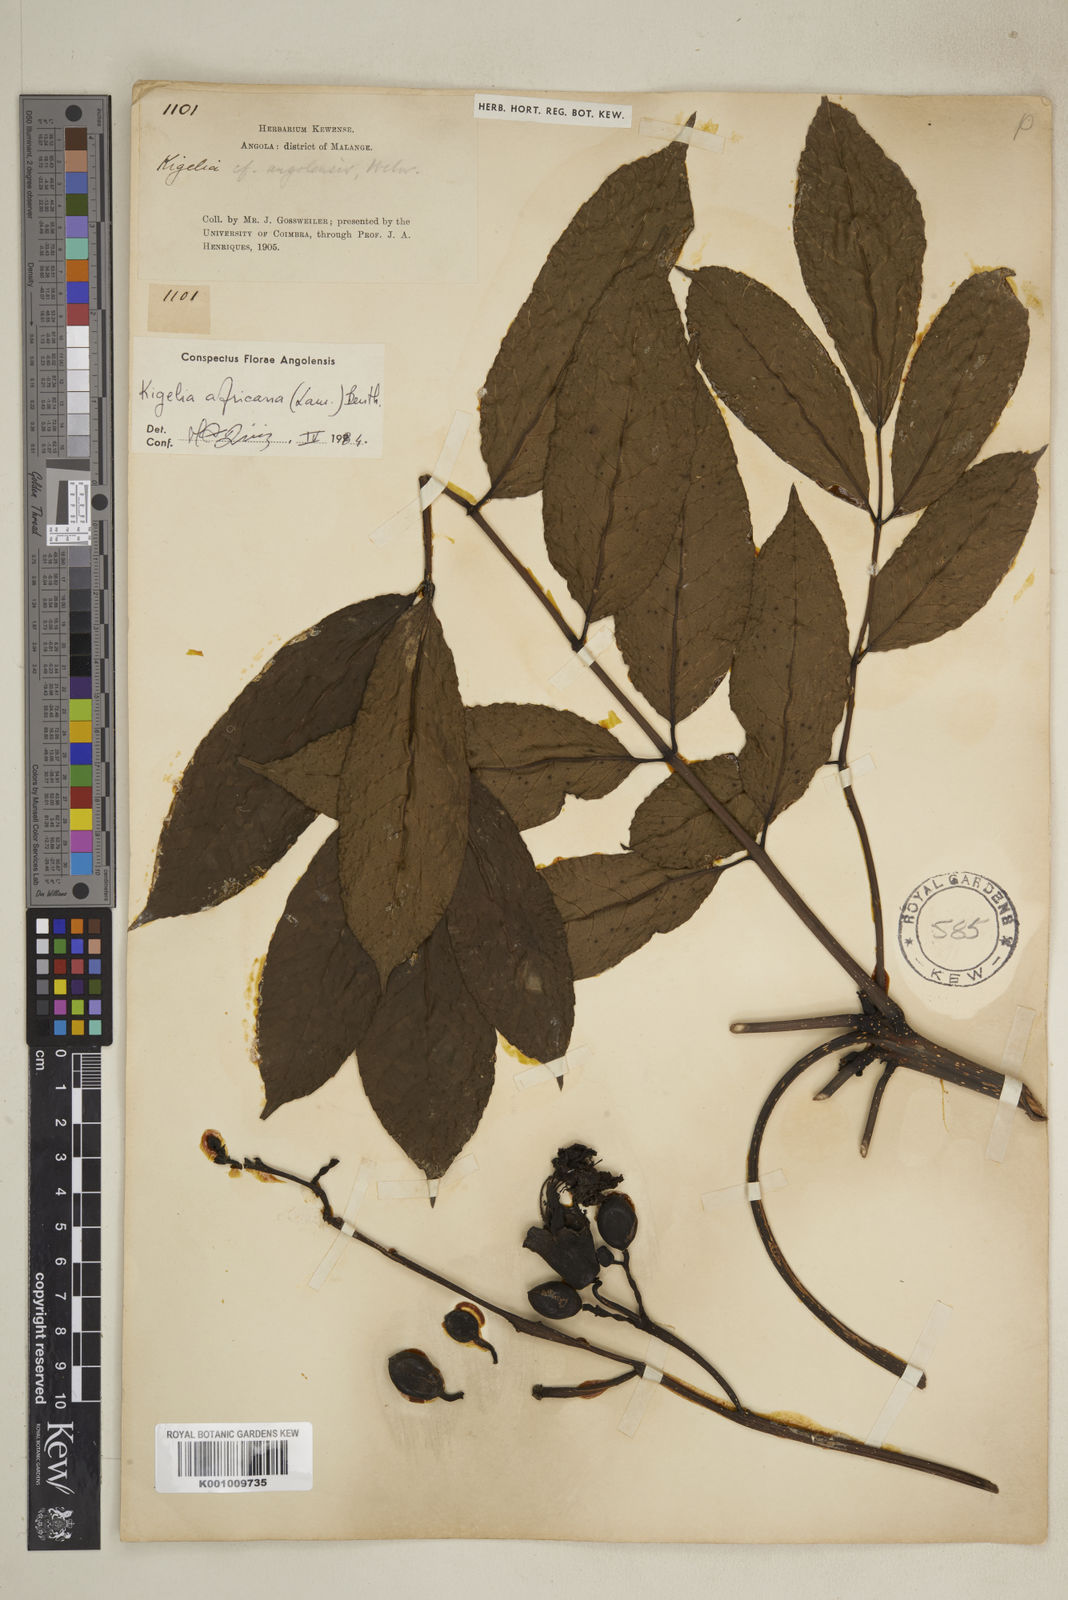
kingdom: Plantae
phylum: Tracheophyta
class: Magnoliopsida
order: Lamiales
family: Bignoniaceae
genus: Kigelia
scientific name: Kigelia africana
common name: Sausage tree
